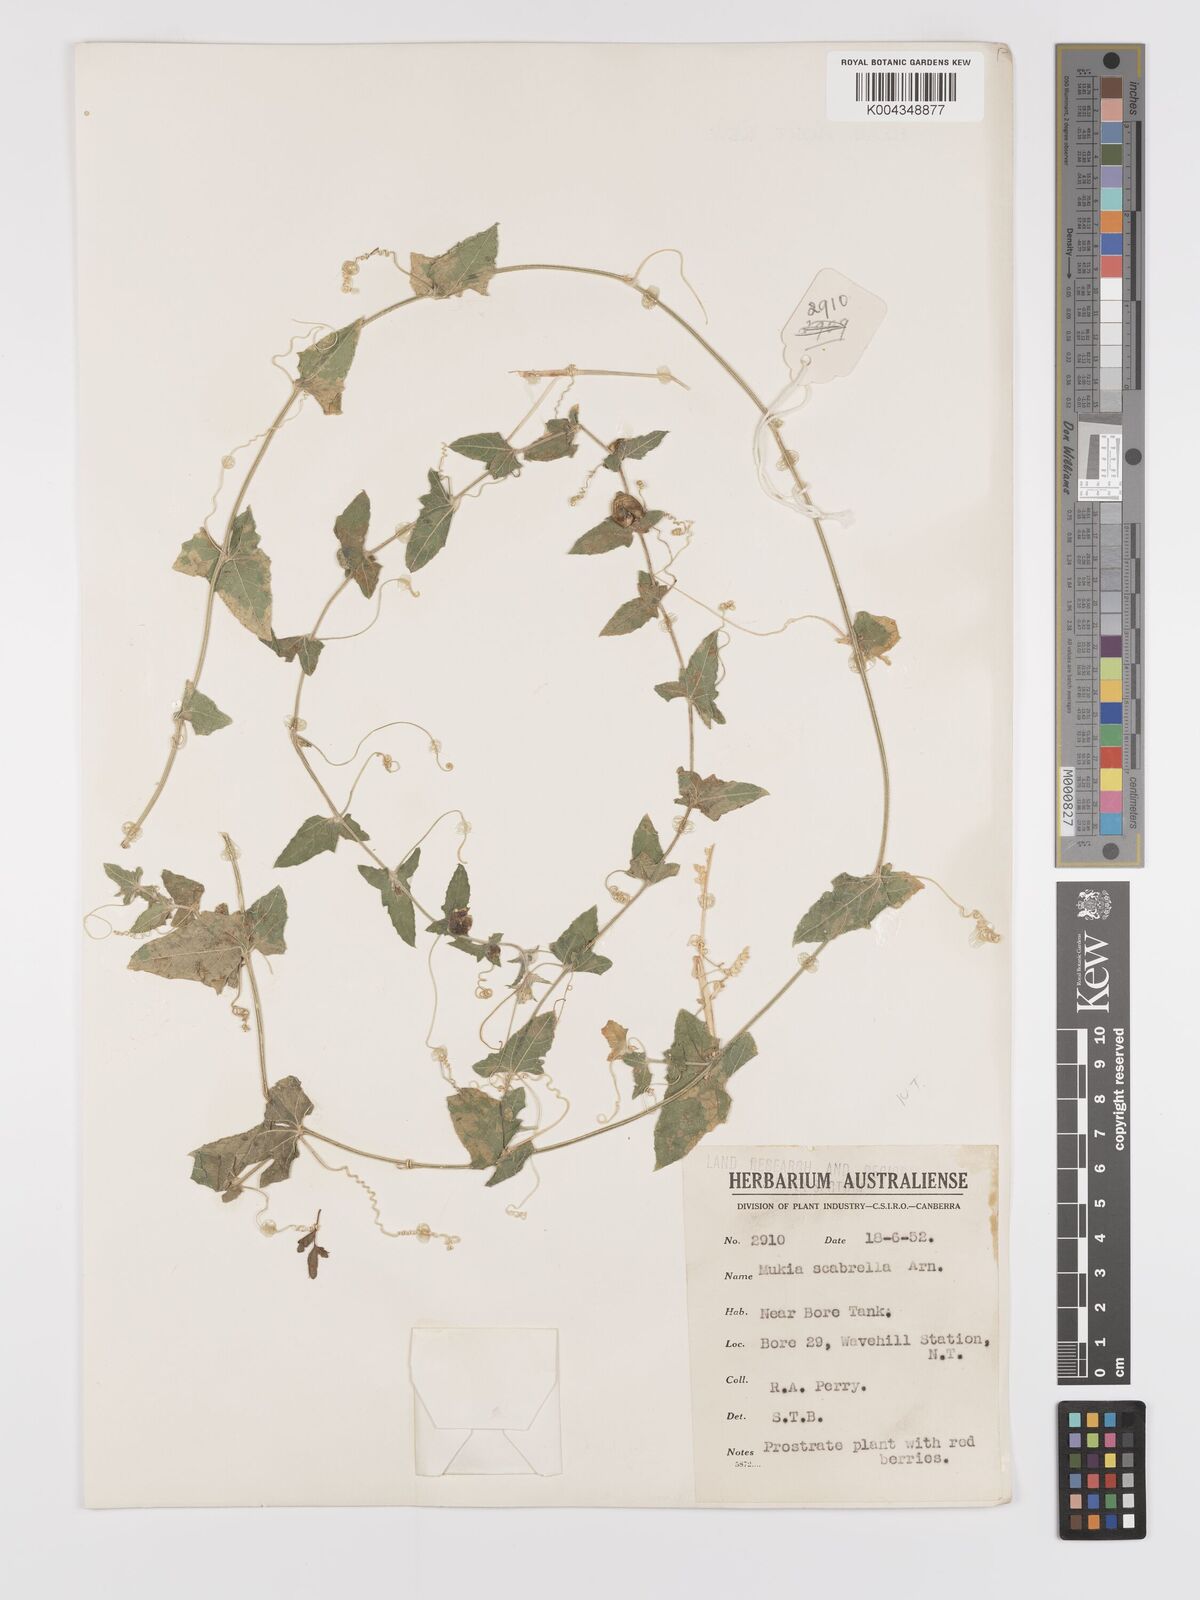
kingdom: Animalia
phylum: Arthropoda
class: Insecta
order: Lepidoptera
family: Crambidae
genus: Mukia
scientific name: Mukia
